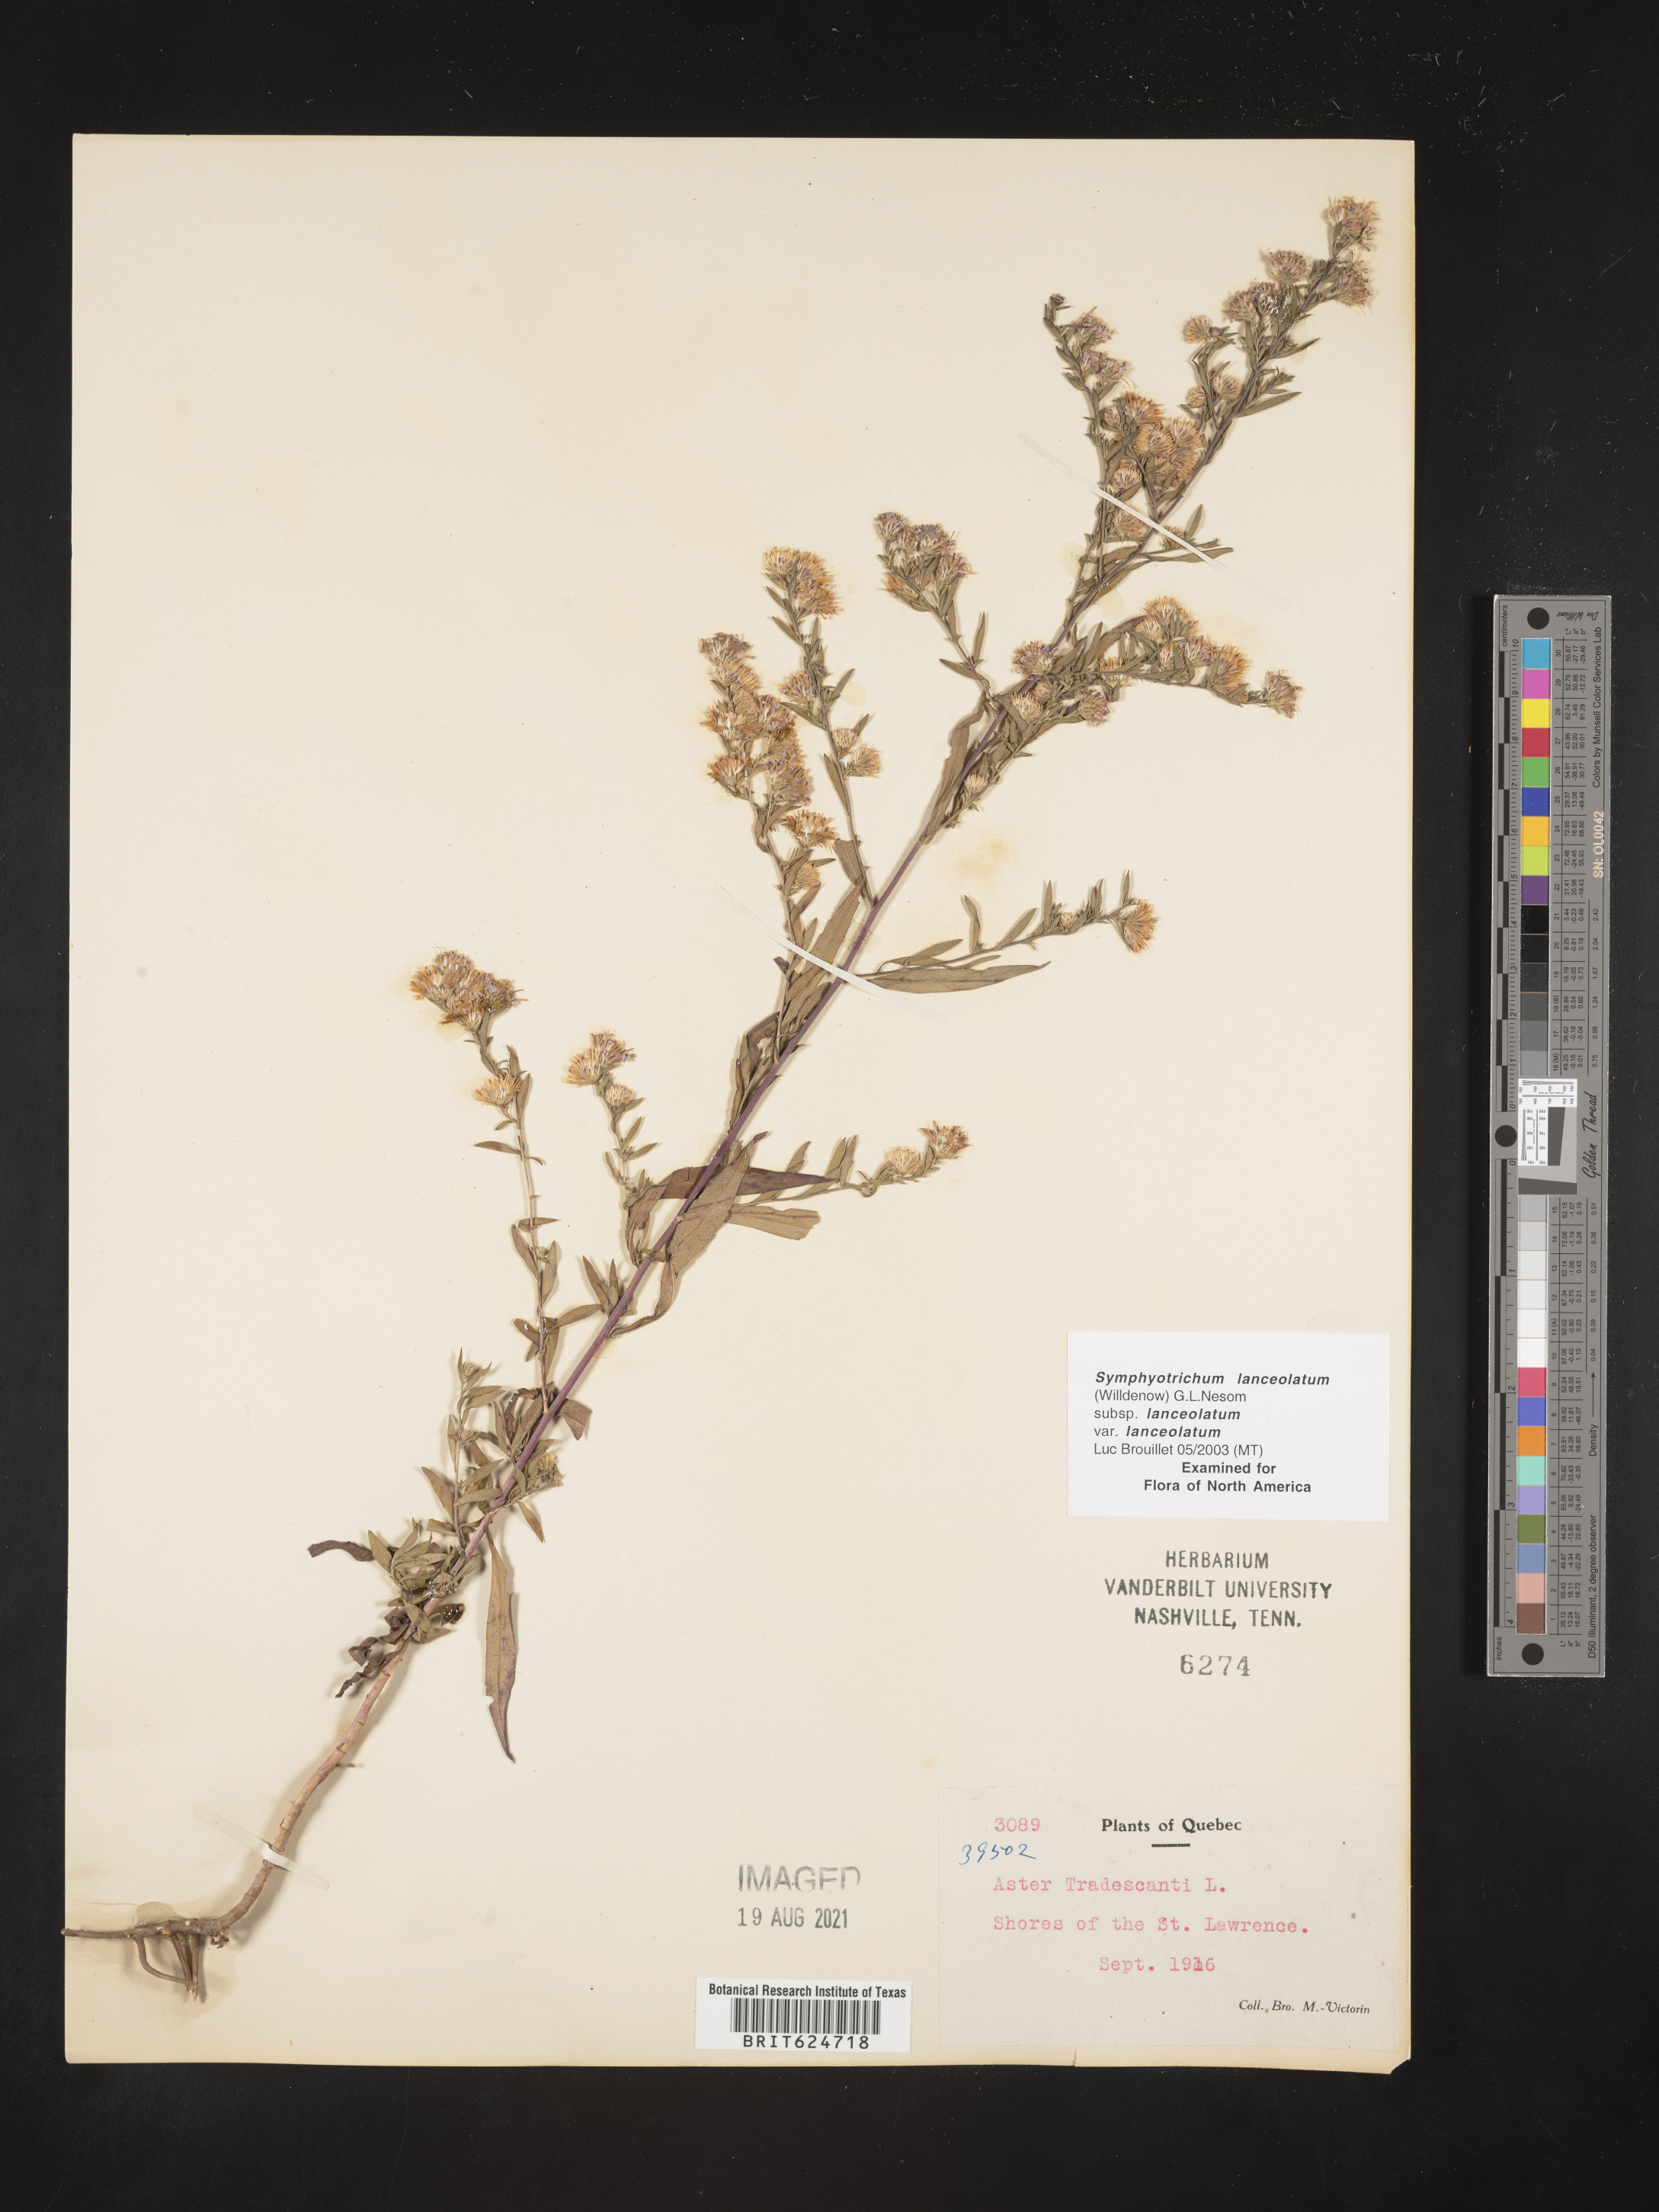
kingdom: Plantae
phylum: Tracheophyta
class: Magnoliopsida
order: Asterales
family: Asteraceae
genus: Symphyotrichum
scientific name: Symphyotrichum lanceolatum
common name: Panicled aster
